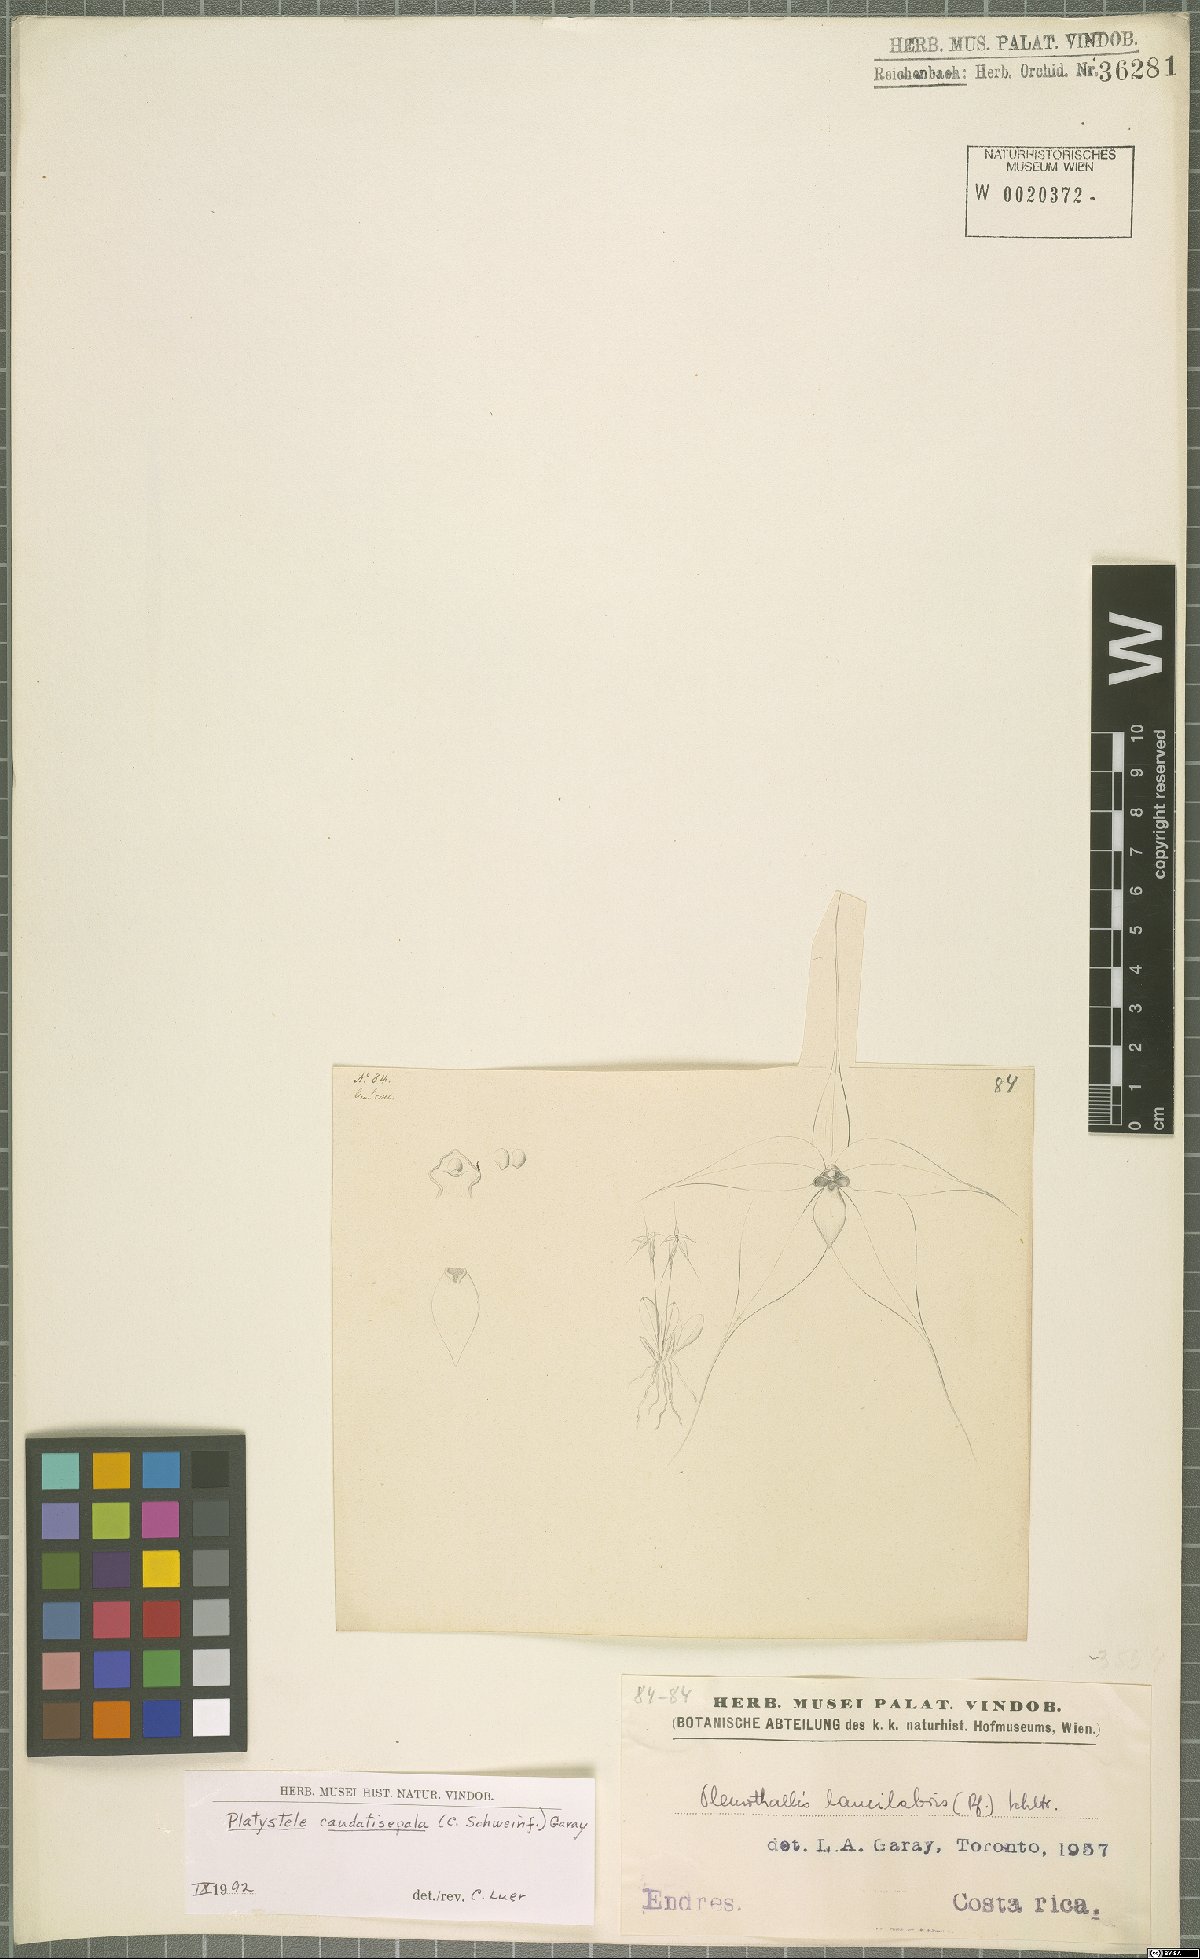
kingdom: Plantae
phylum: Tracheophyta
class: Liliopsida
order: Asparagales
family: Orchidaceae
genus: Platystele
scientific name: Platystele caudatisepala
